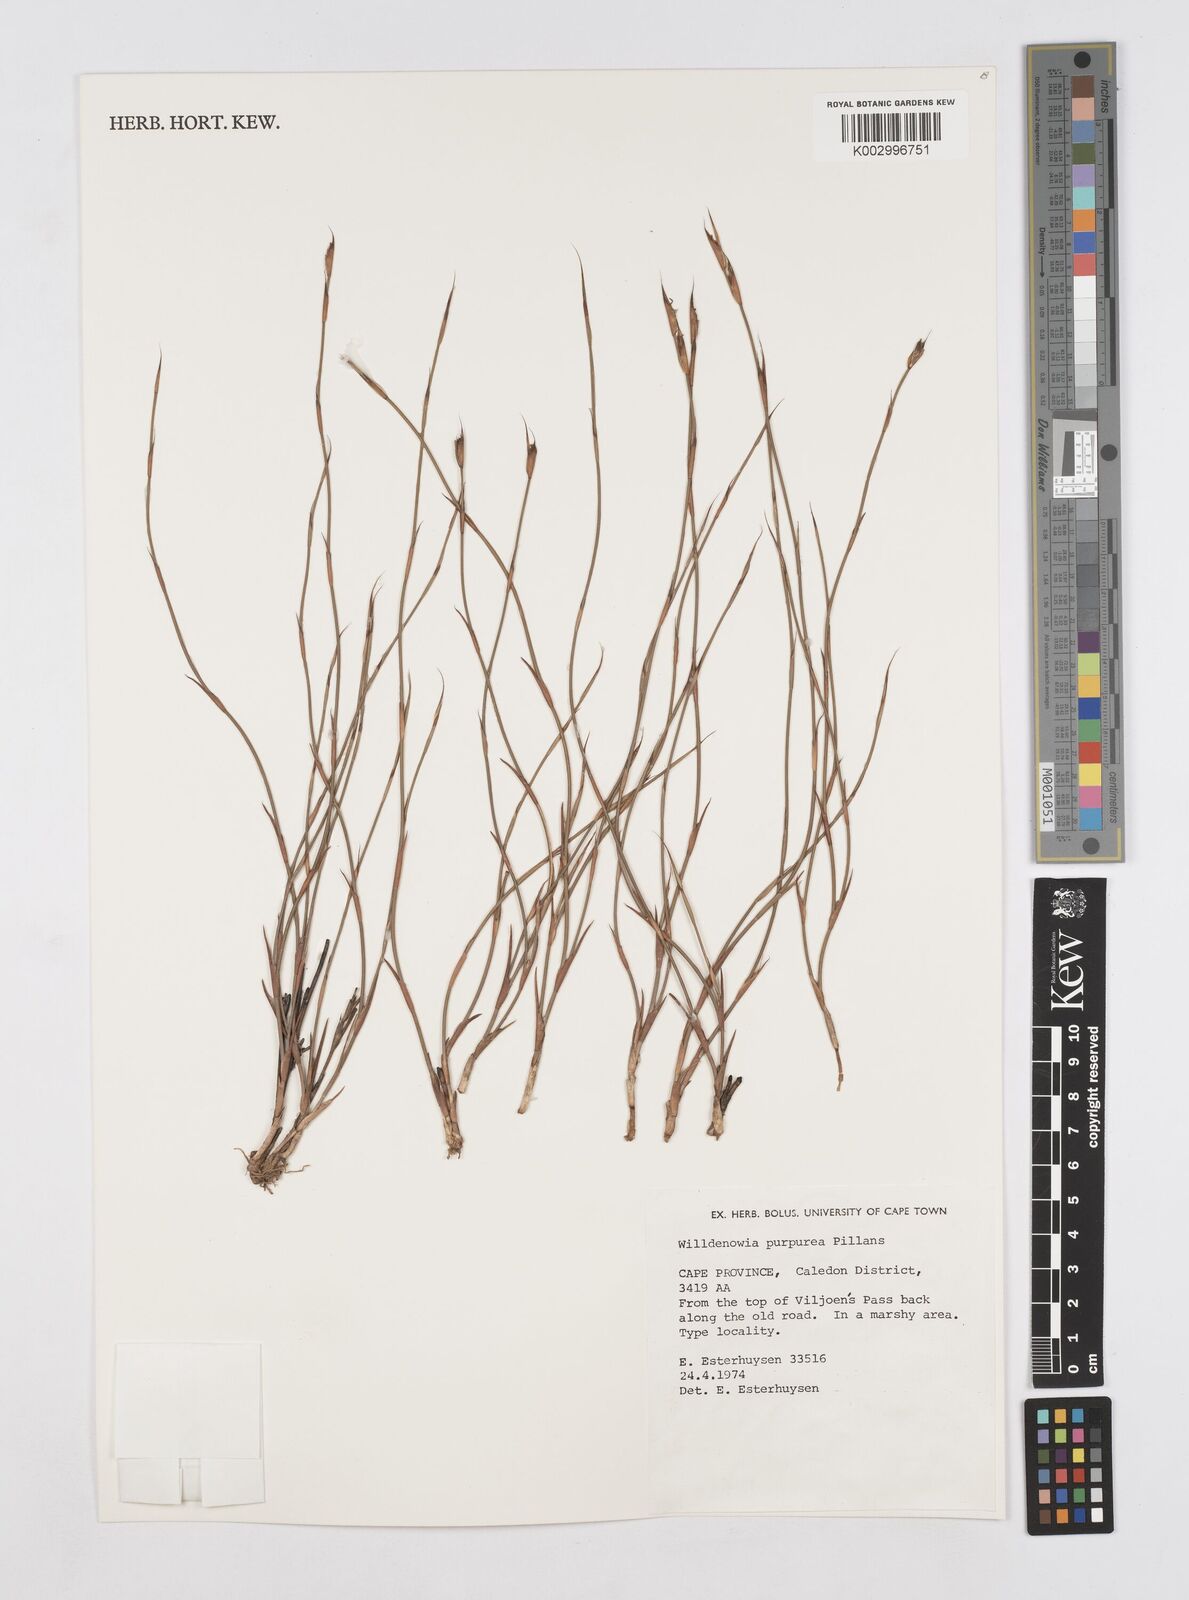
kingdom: Plantae
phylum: Tracheophyta
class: Liliopsida
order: Poales
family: Restionaceae
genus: Willdenowia
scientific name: Willdenowia purpurea
